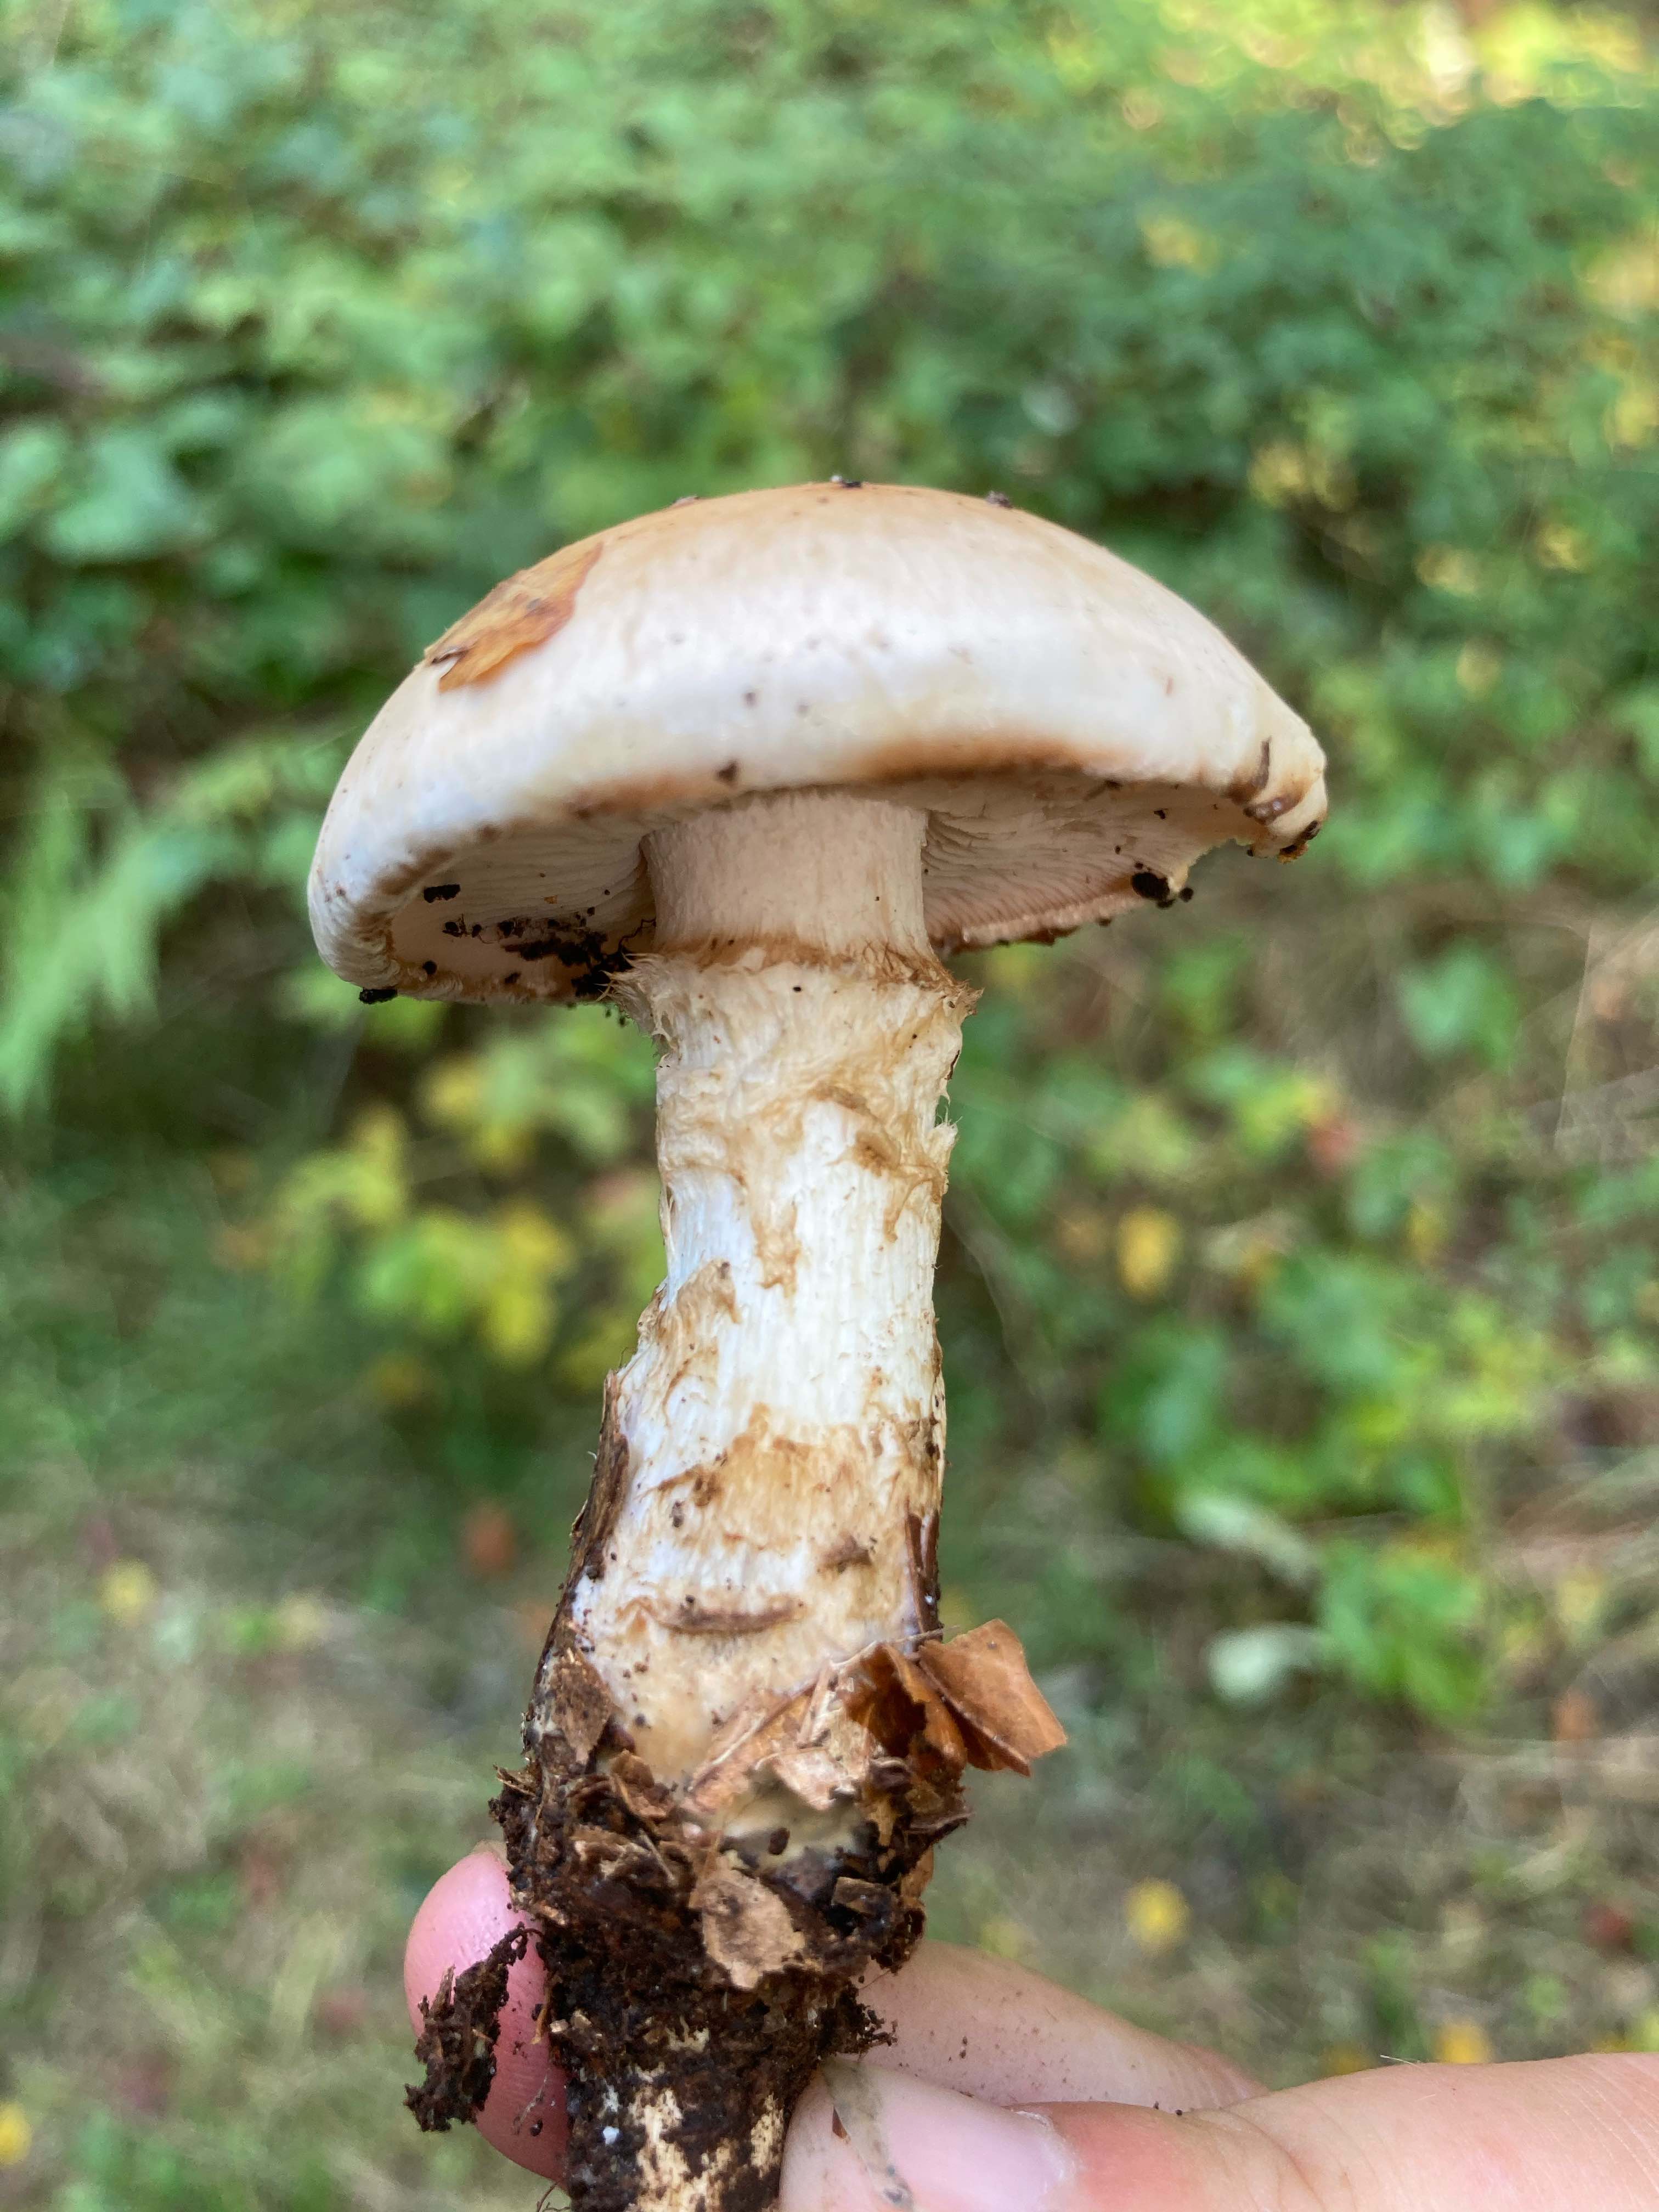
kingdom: Fungi
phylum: Basidiomycota
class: Agaricomycetes
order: Agaricales
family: Hymenogastraceae
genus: Hebeloma
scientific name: Hebeloma radicosum
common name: pælerods-tåreblad
